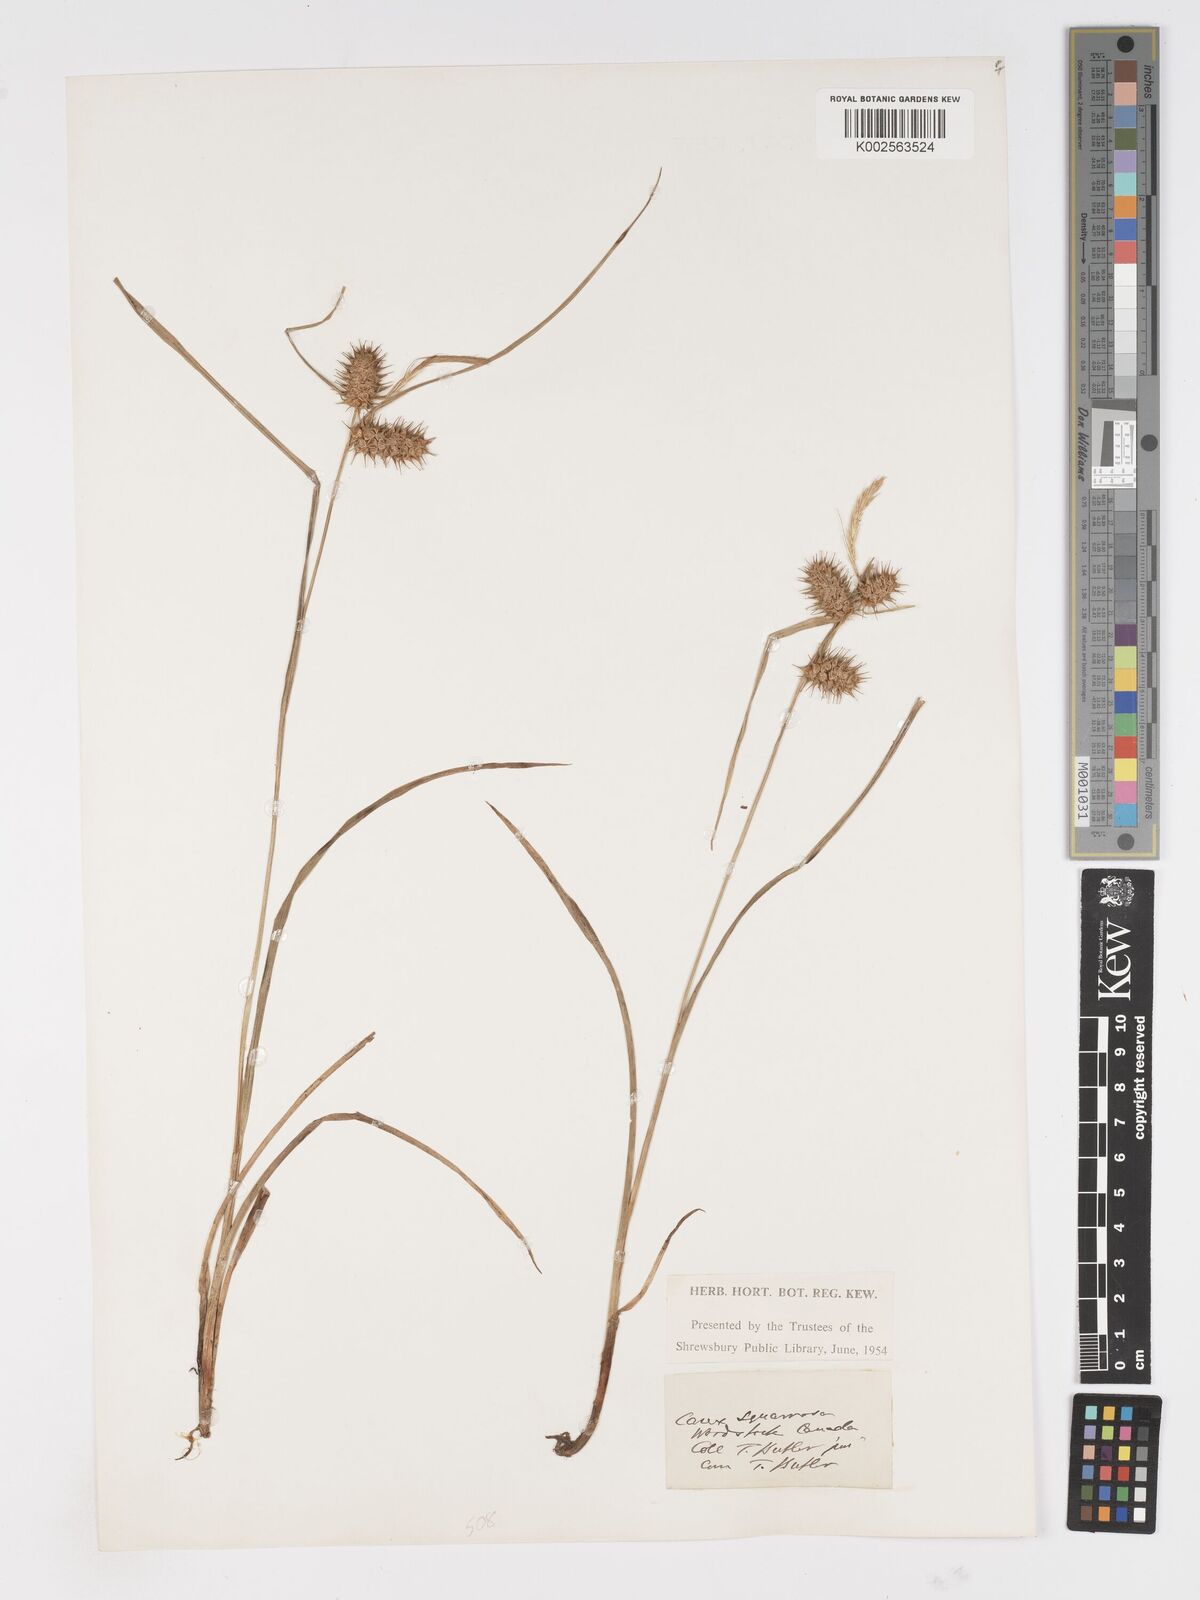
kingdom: Plantae
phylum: Tracheophyta
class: Liliopsida
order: Poales
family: Cyperaceae
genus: Carex
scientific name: Carex squarrosa
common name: Narrow-leaved cattail sedge
